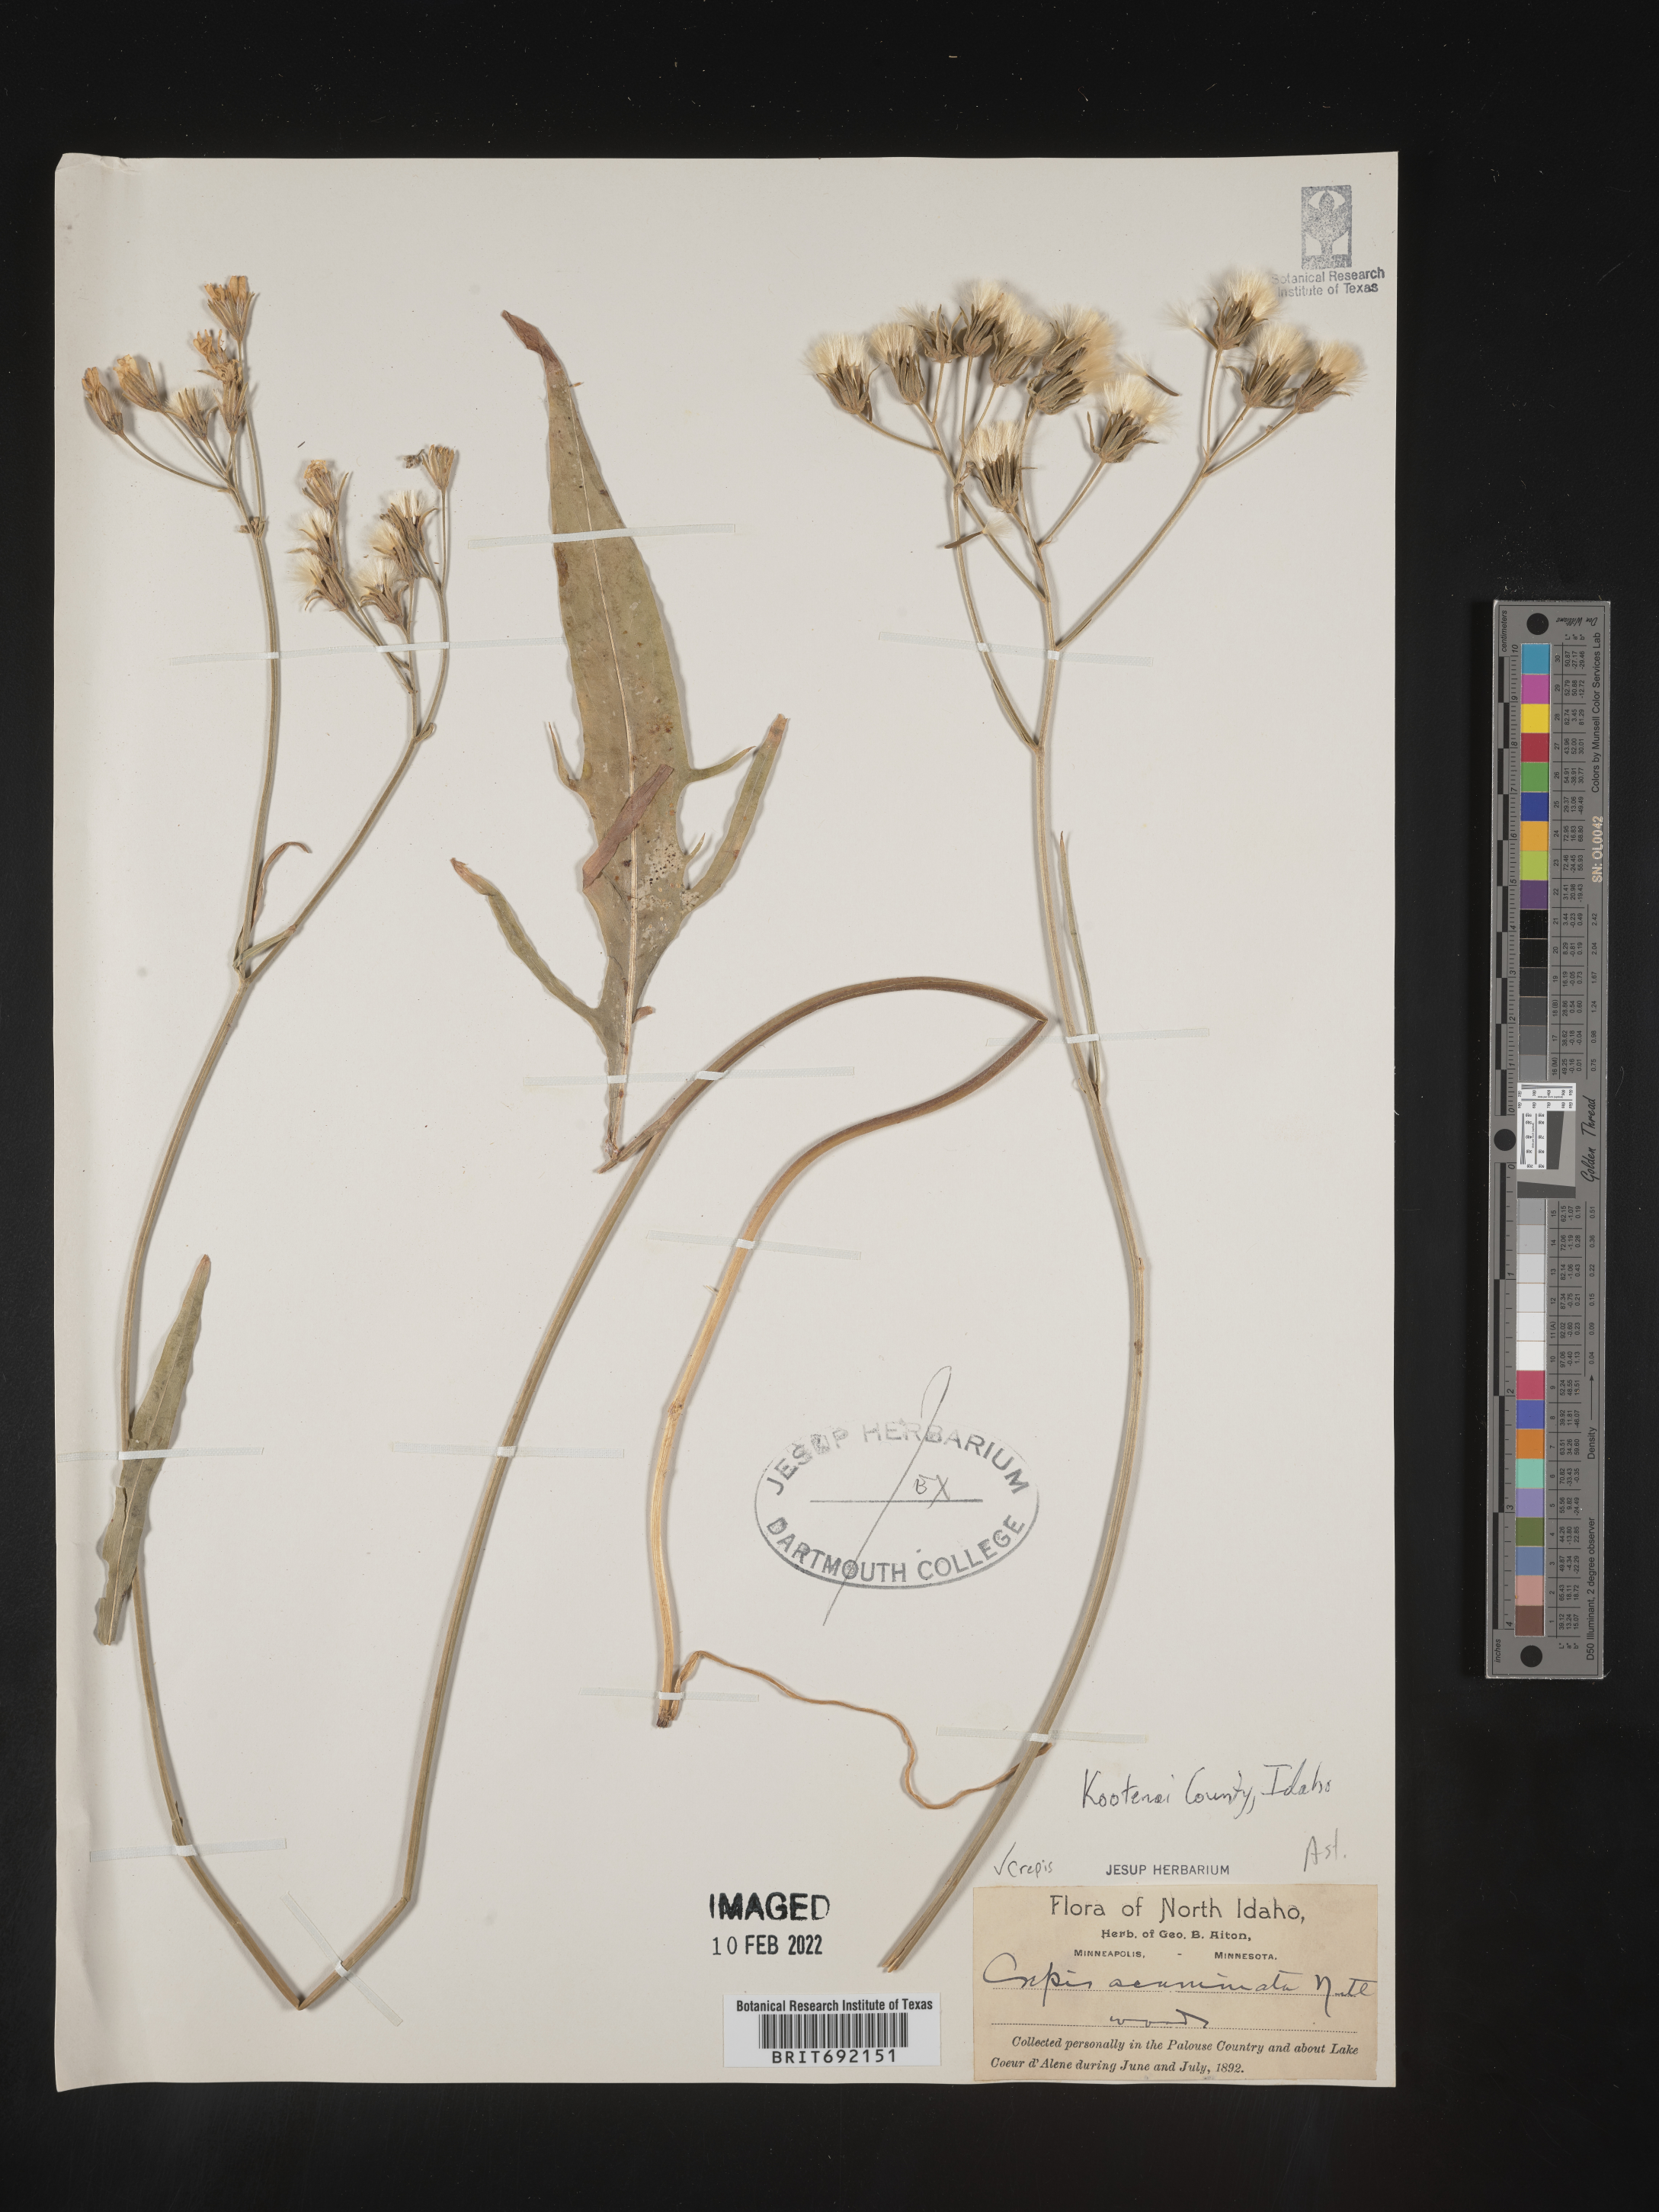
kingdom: Plantae
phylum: Tracheophyta
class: Magnoliopsida
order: Asterales
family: Asteraceae
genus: Crepis
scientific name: Crepis acuminata
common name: Longleaf hawk's-beard
